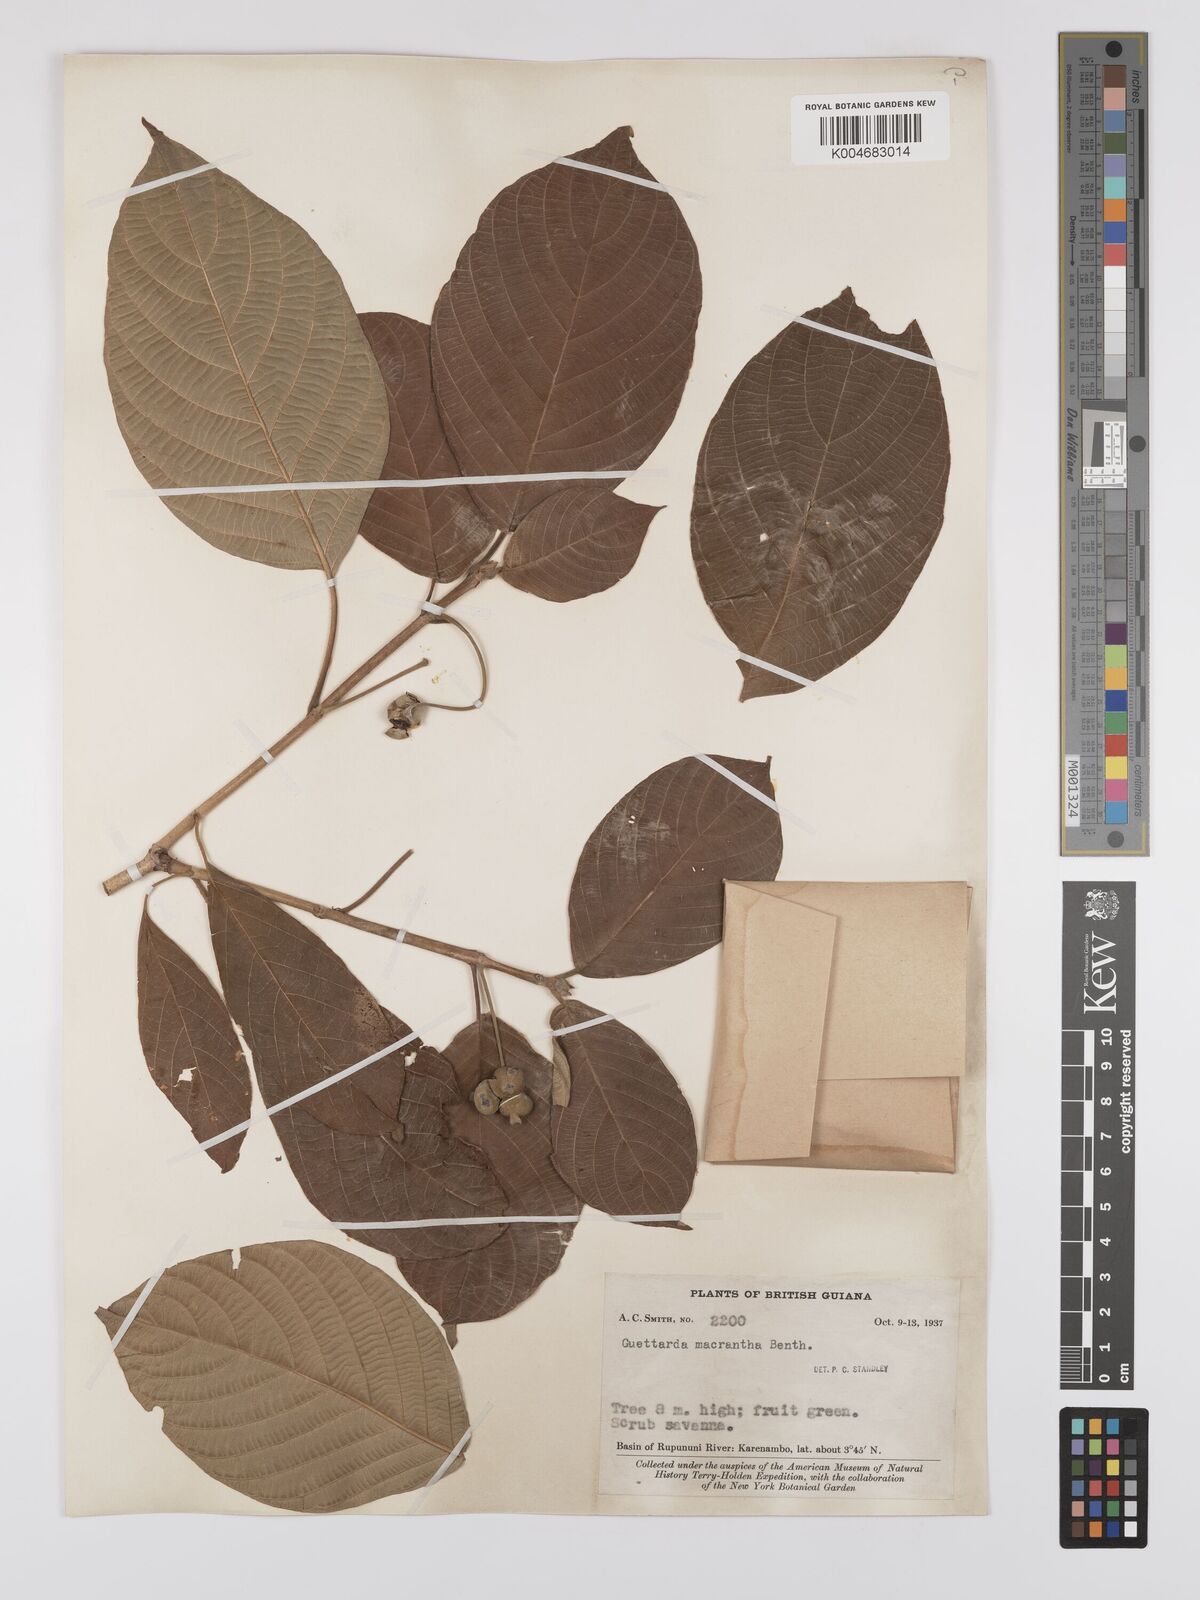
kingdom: Plantae
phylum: Tracheophyta
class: Magnoliopsida
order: Gentianales
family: Rubiaceae
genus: Guettarda
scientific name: Guettarda macrantha
